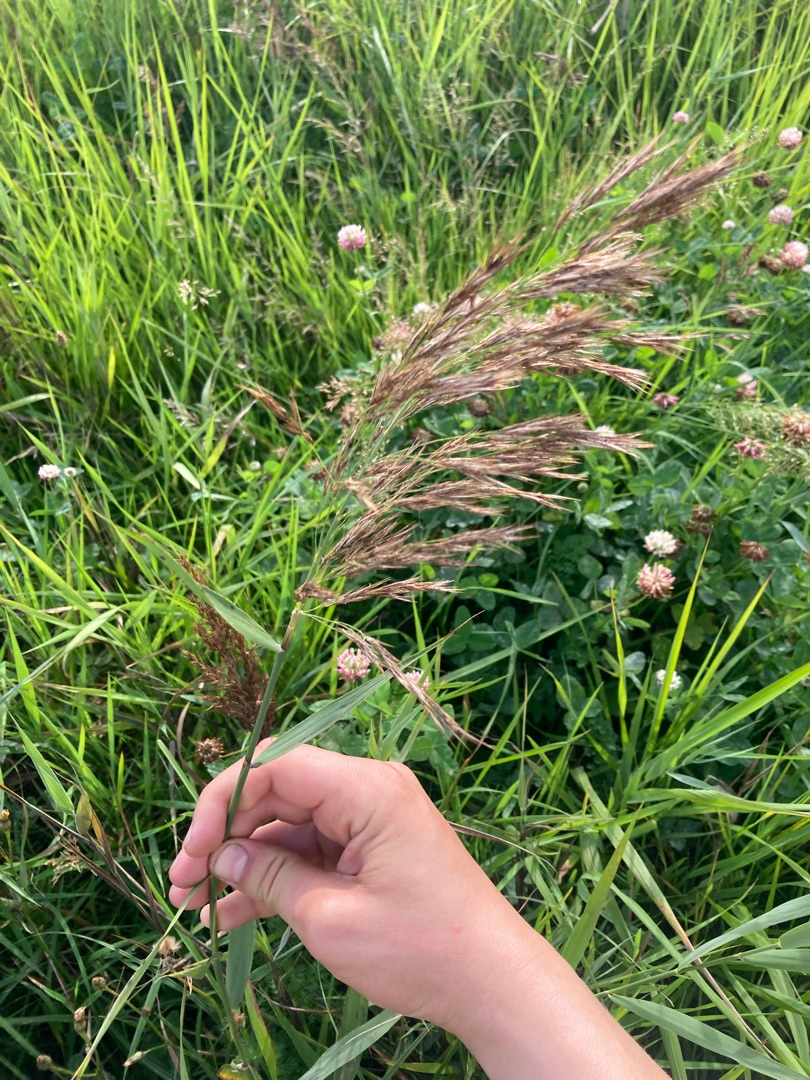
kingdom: Plantae
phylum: Tracheophyta
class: Liliopsida
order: Poales
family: Poaceae
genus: Phragmites
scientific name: Phragmites australis
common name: Tagrør
